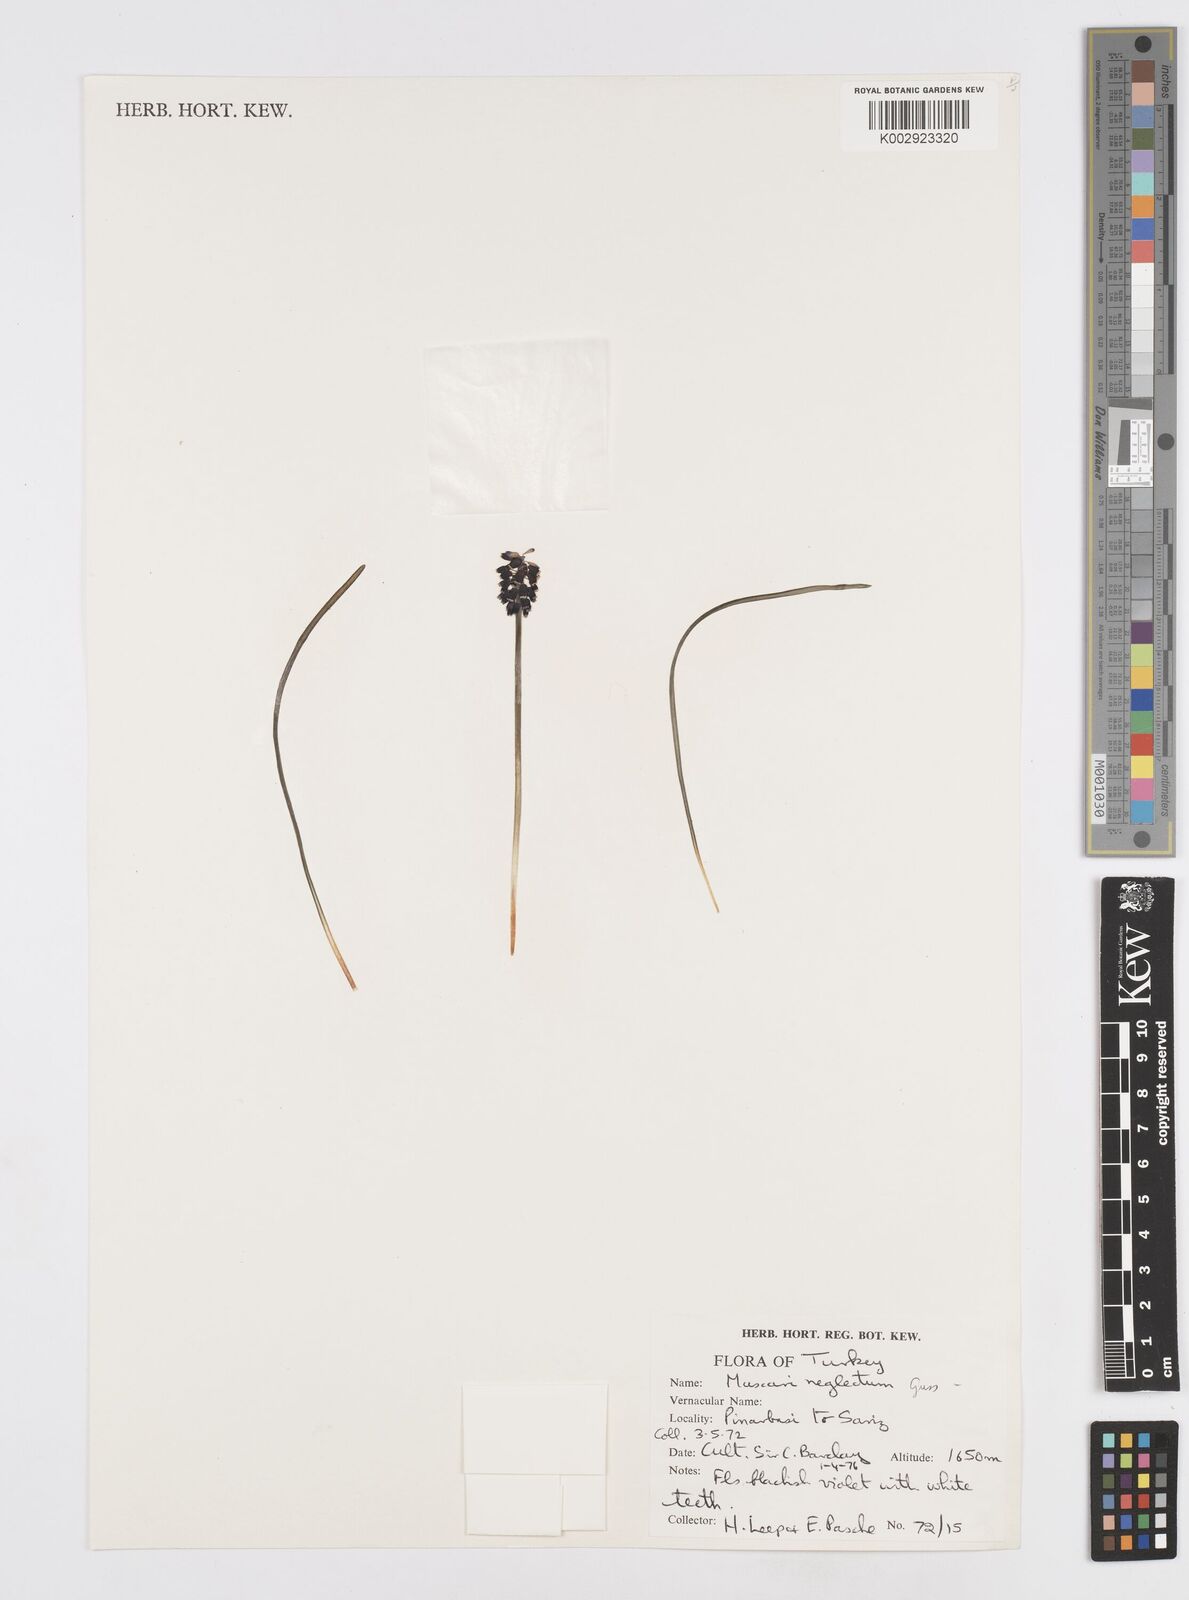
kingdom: Plantae
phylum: Tracheophyta
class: Liliopsida
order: Asparagales
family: Asparagaceae
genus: Muscari
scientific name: Muscari neglectum
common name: Grape-hyacinth
